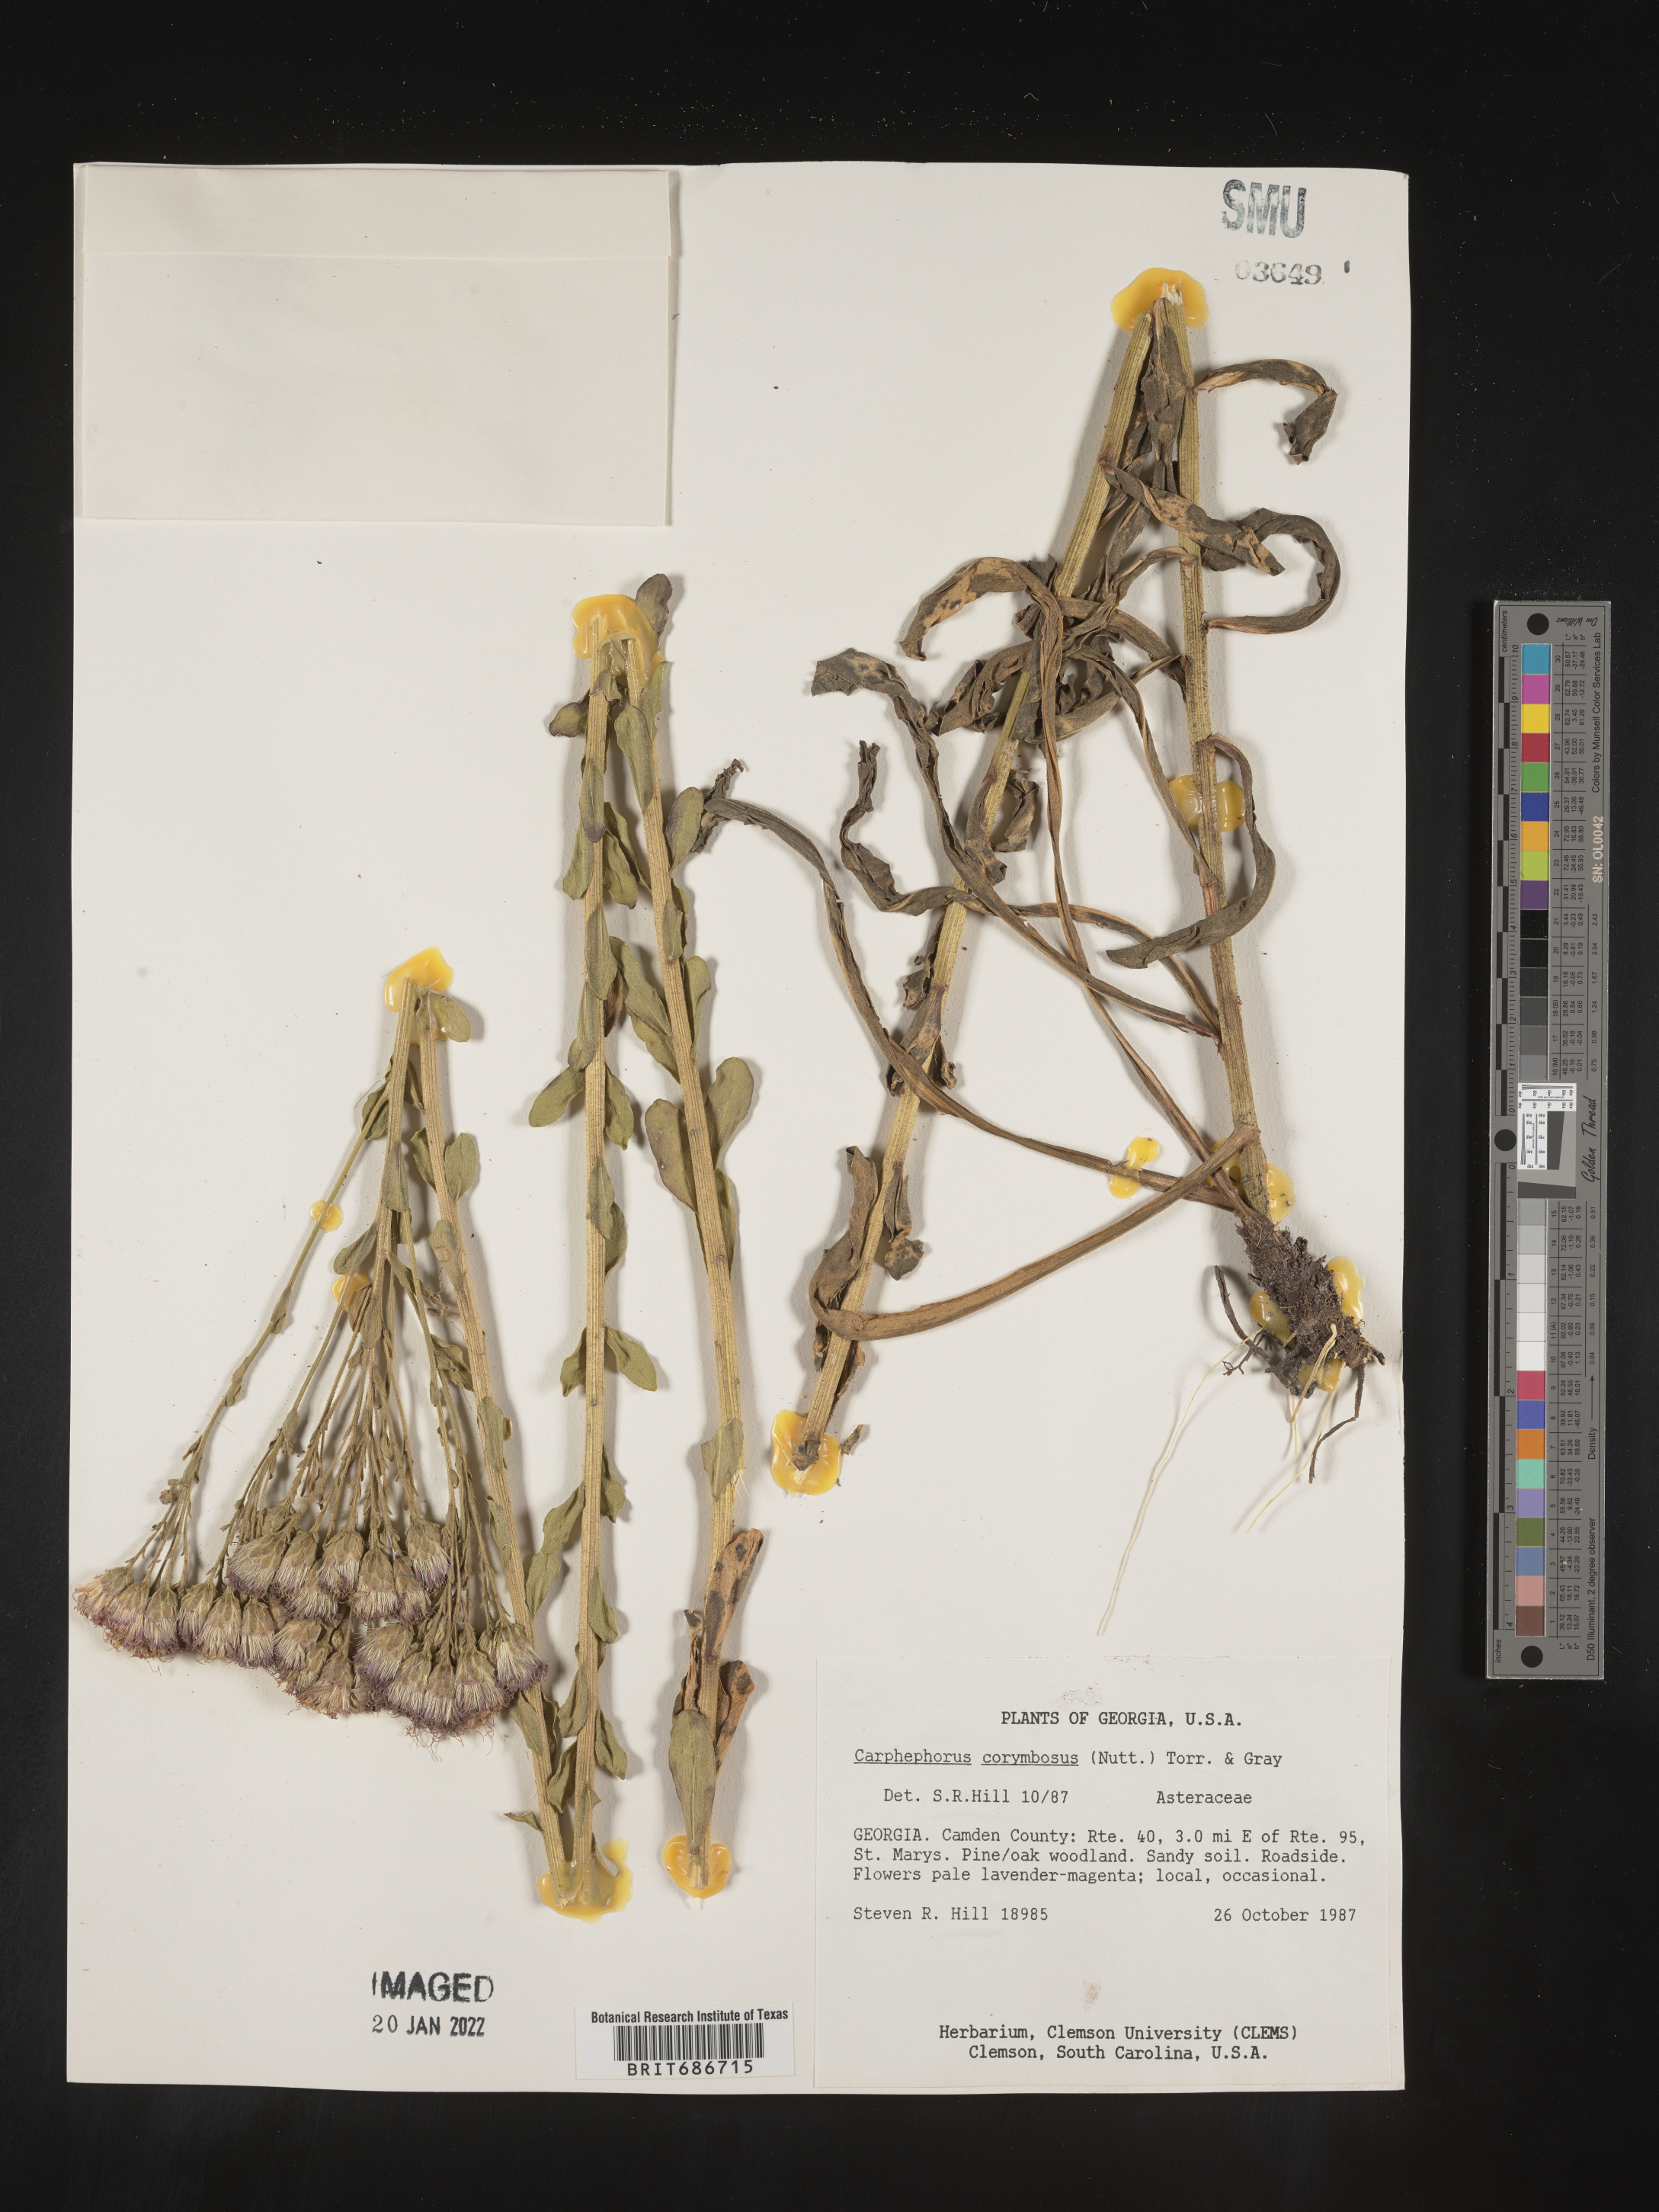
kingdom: Plantae
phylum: Tracheophyta
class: Magnoliopsida
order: Asterales
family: Asteraceae
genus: Carphephorus
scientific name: Carphephorus corymbosus
